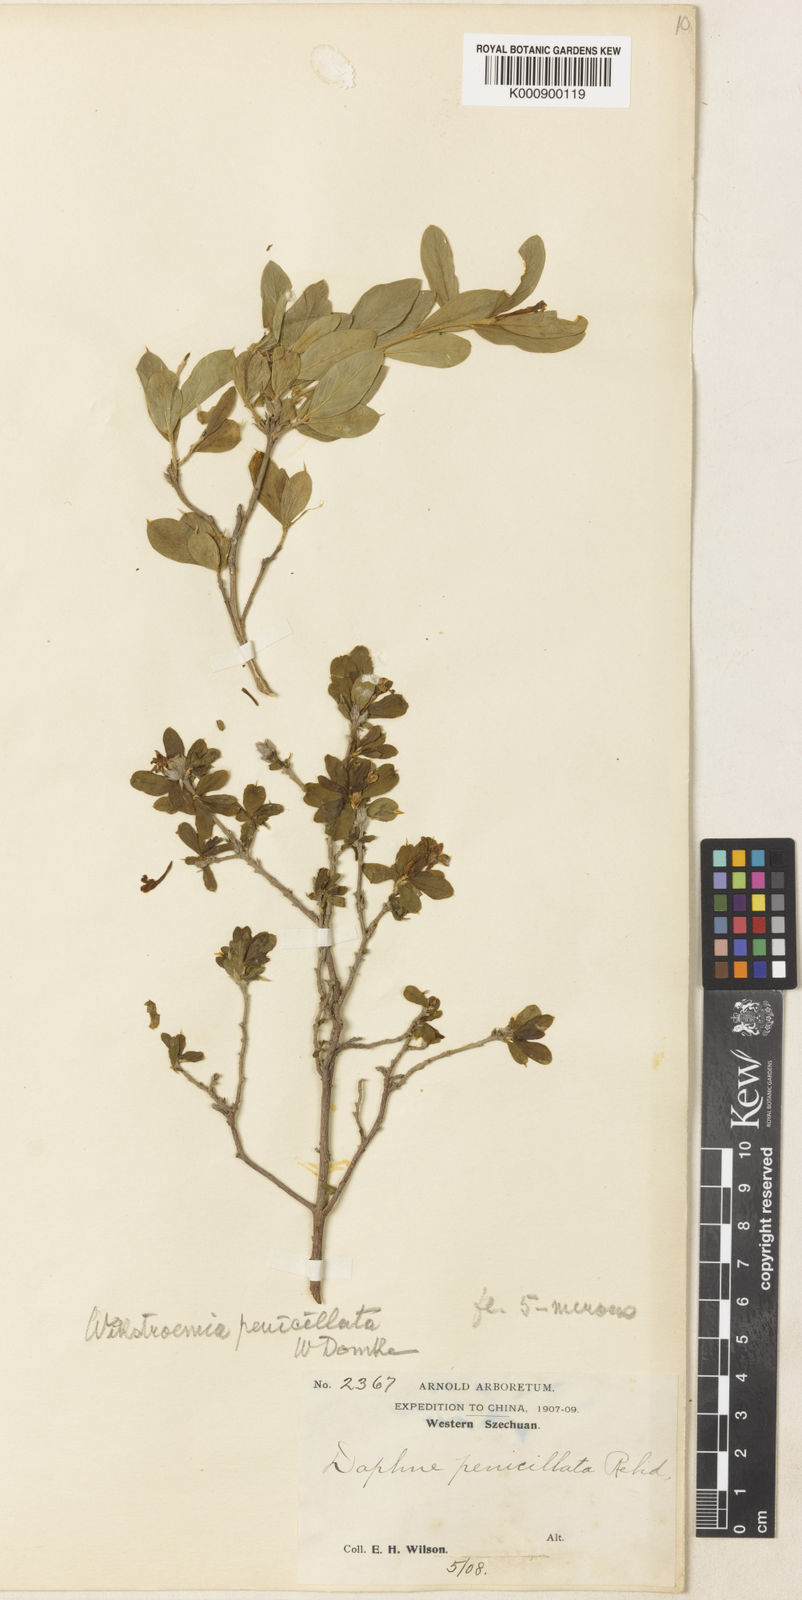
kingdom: Plantae
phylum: Tracheophyta
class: Magnoliopsida
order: Malvales
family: Thymelaeaceae
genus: Wikstroemia
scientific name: Wikstroemia penicillata
